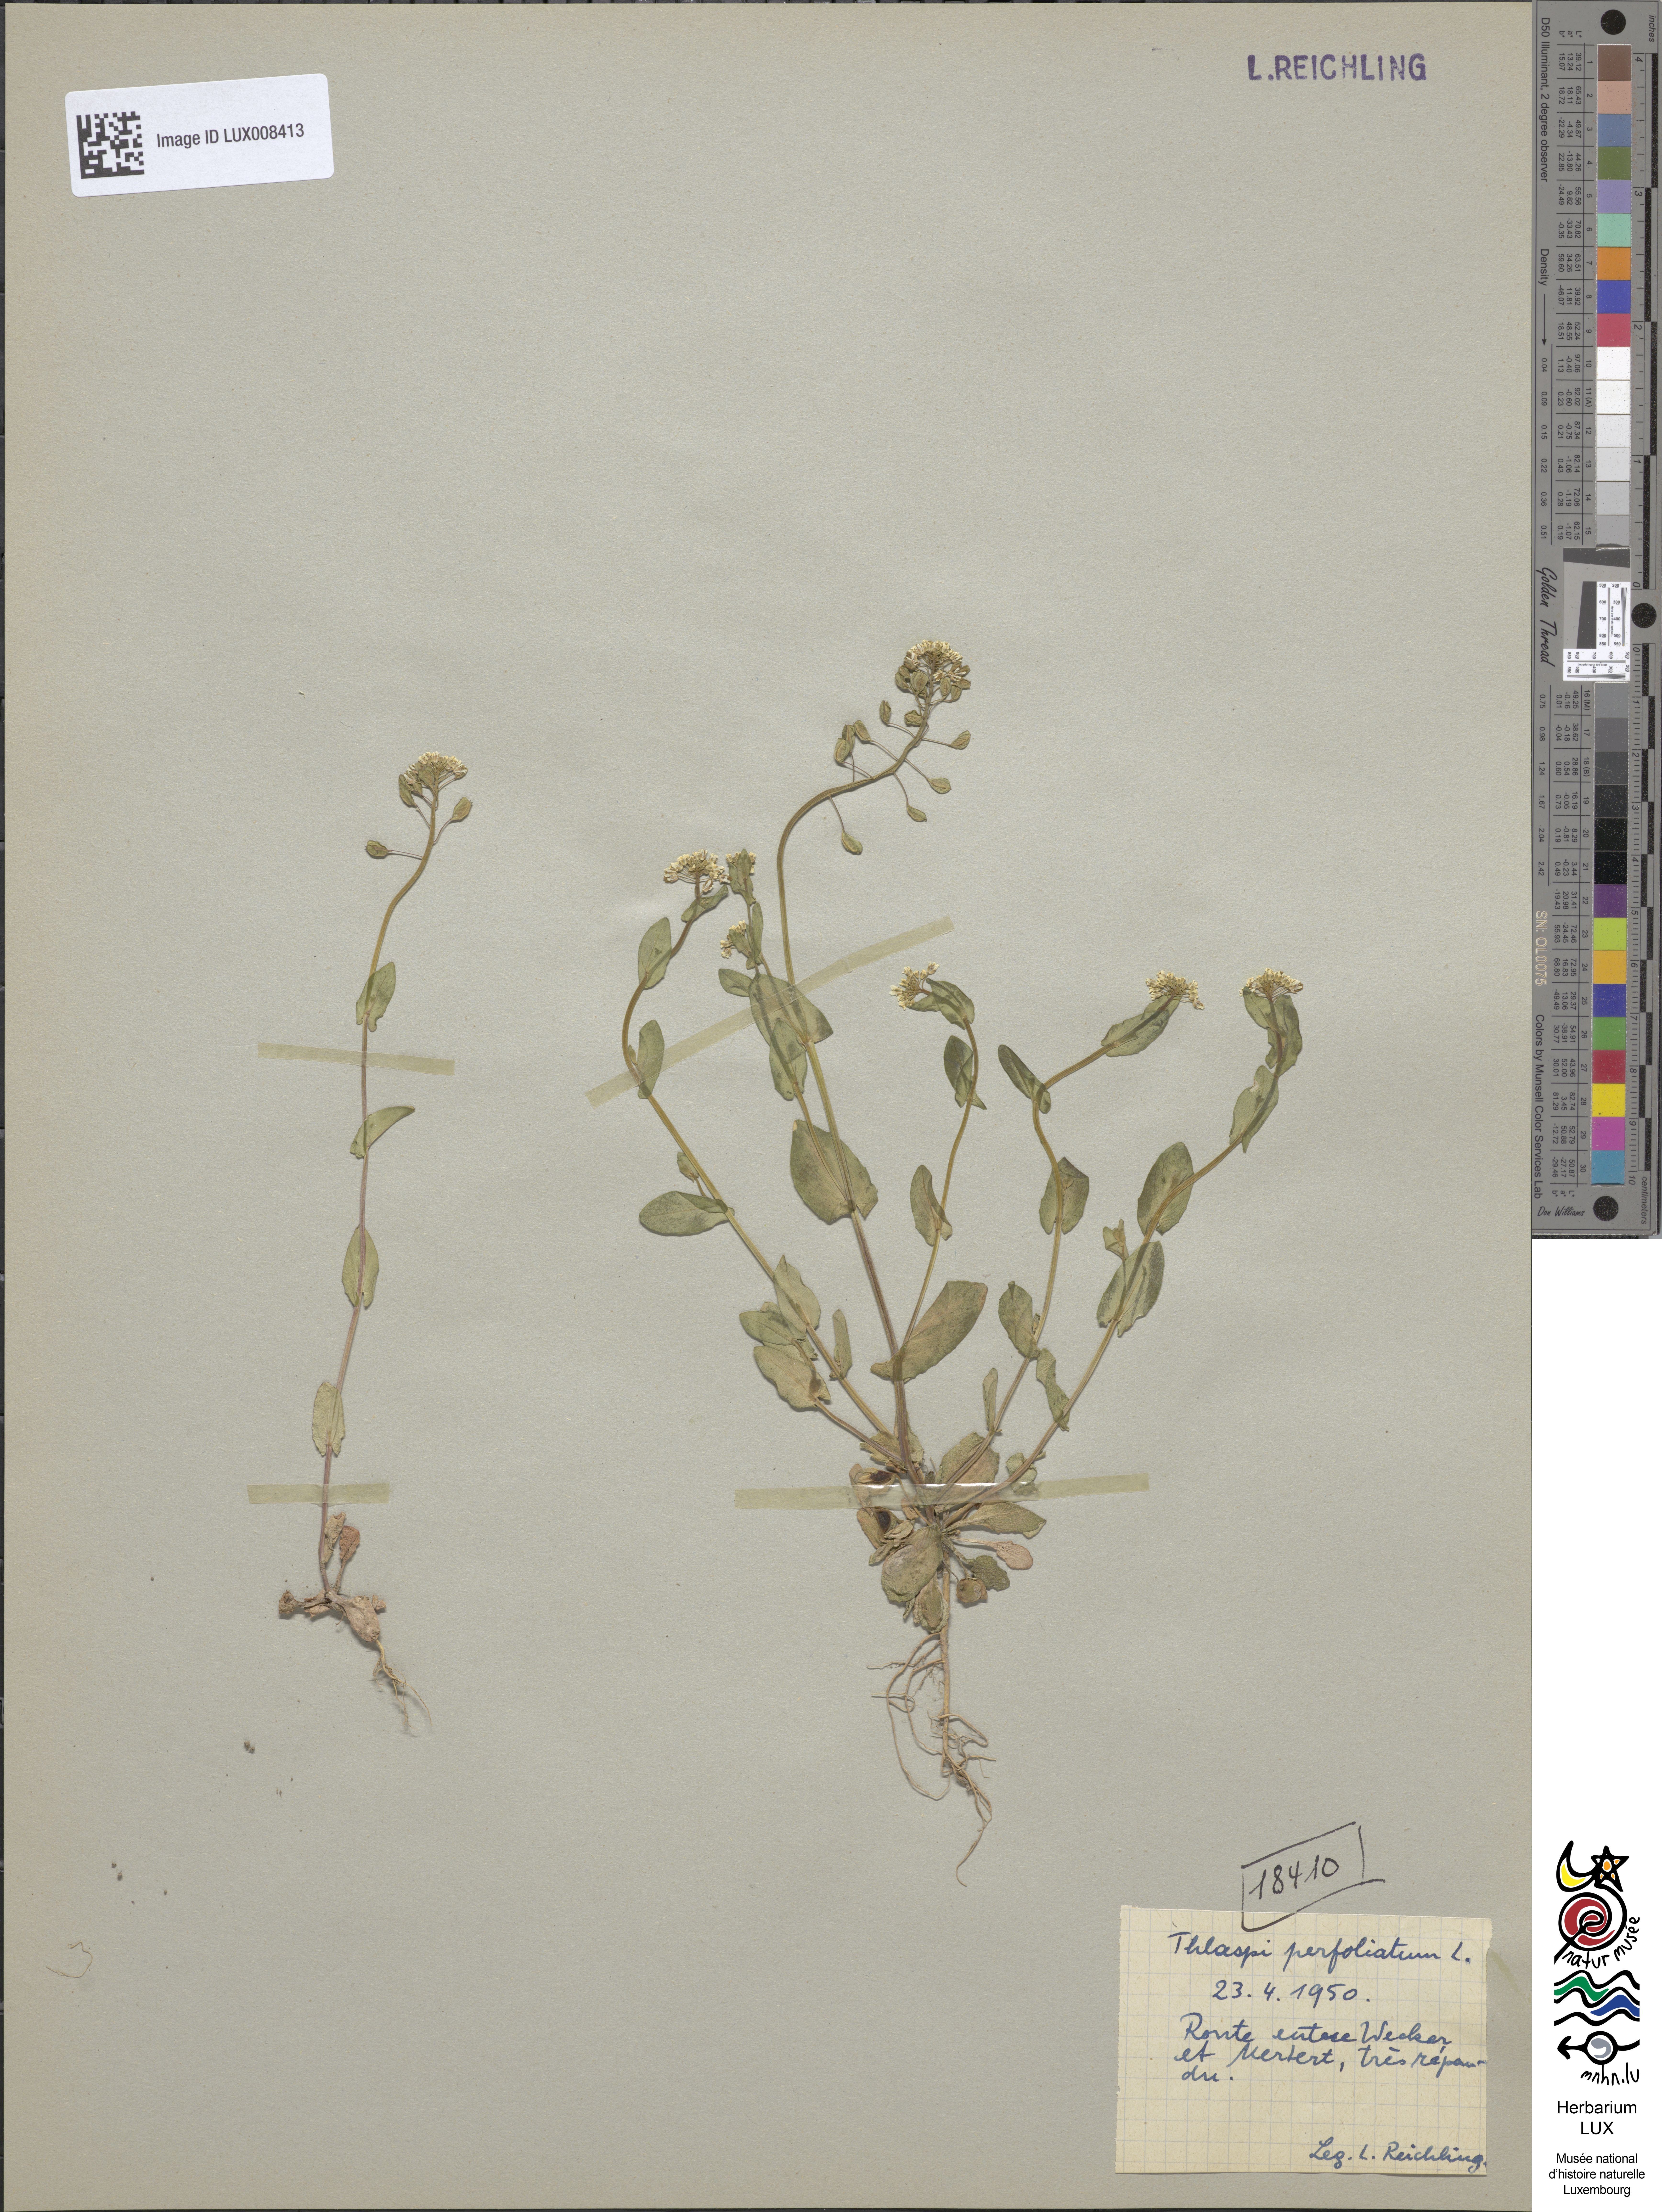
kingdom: Plantae
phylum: Tracheophyta
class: Magnoliopsida
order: Brassicales
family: Brassicaceae
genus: Noccaea
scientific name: Noccaea perfoliata
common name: Perfoliate pennycress
